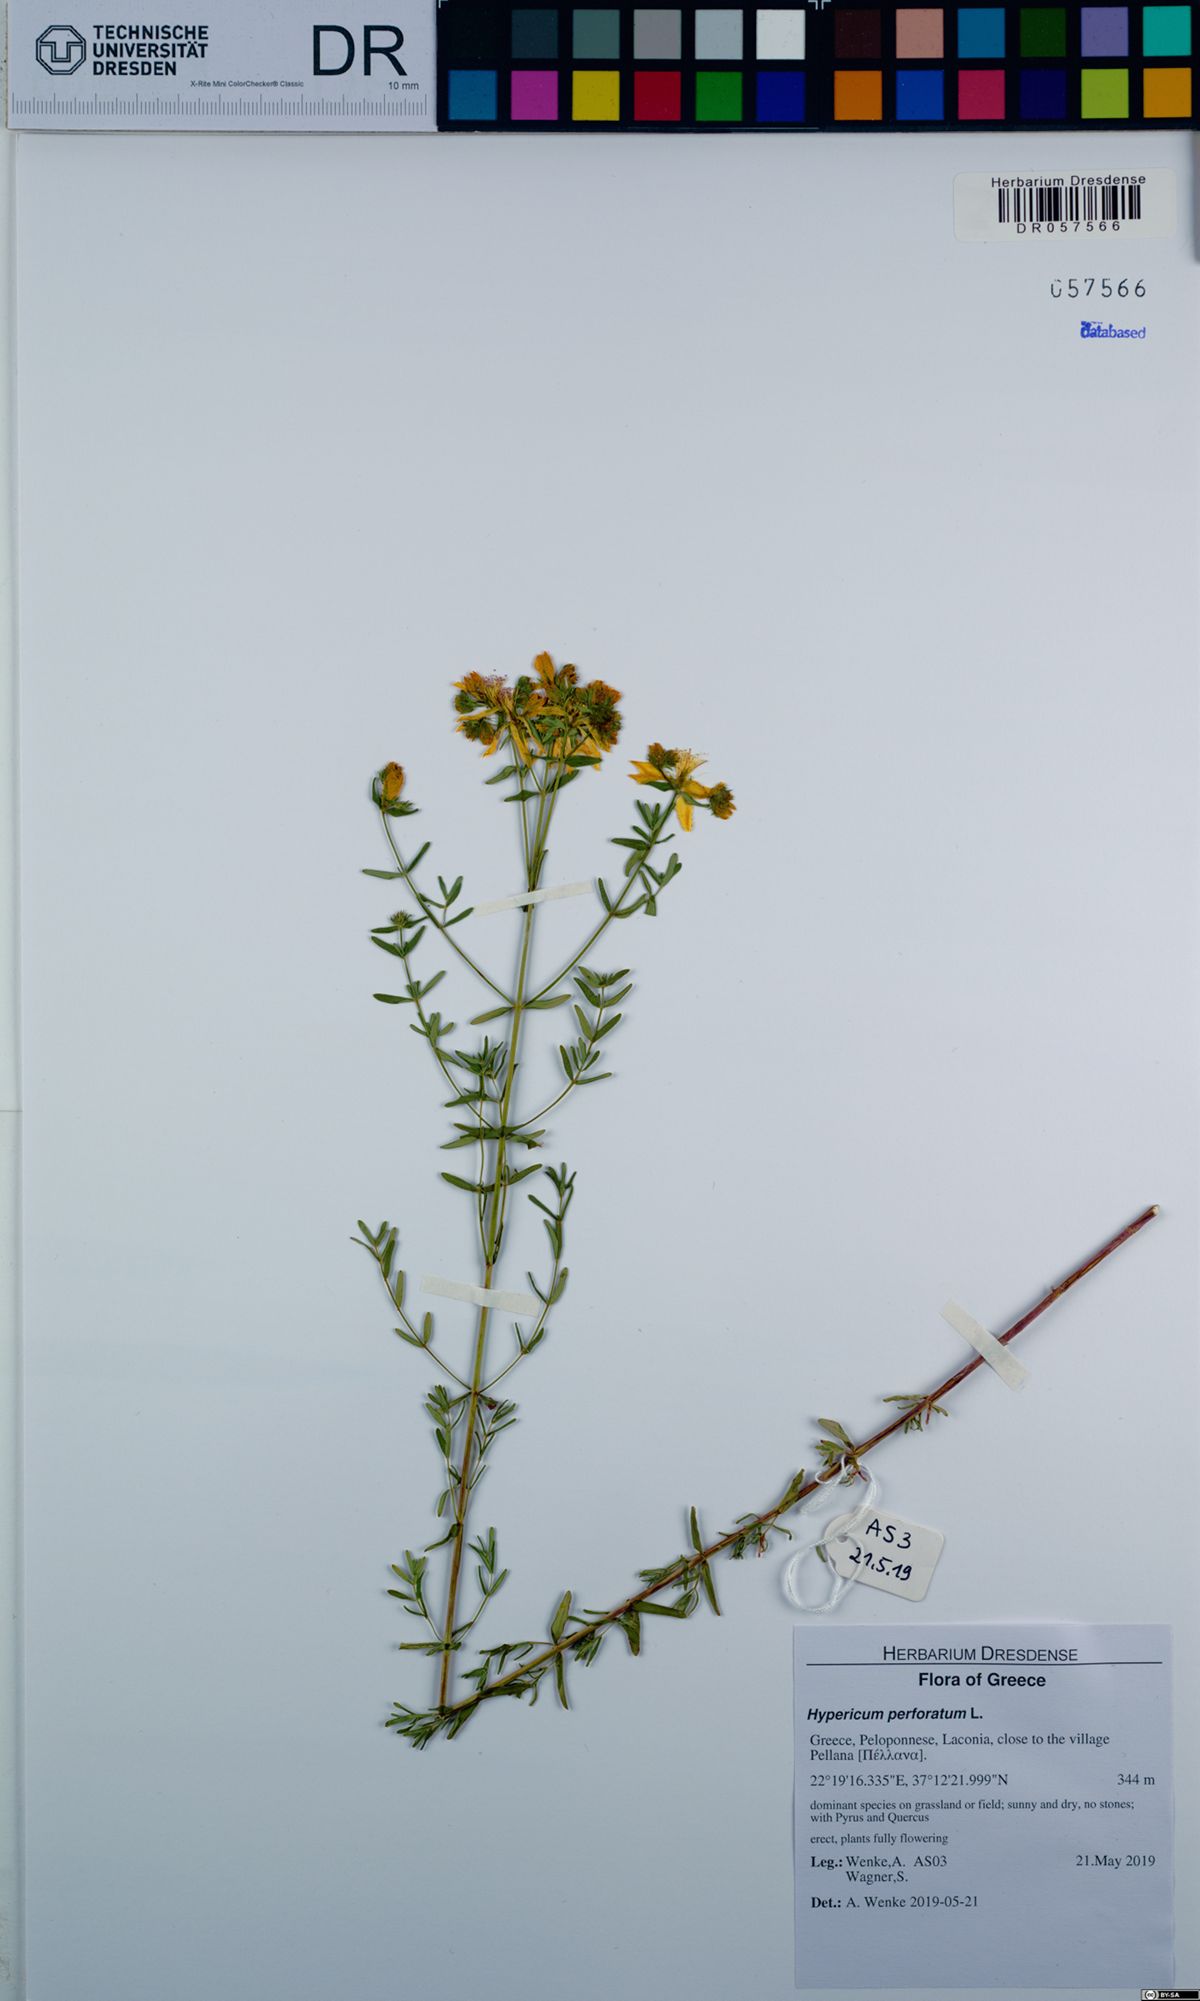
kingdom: Plantae
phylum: Tracheophyta
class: Magnoliopsida
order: Malpighiales
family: Hypericaceae
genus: Hypericum
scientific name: Hypericum perforatum
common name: Common st. johnswort
